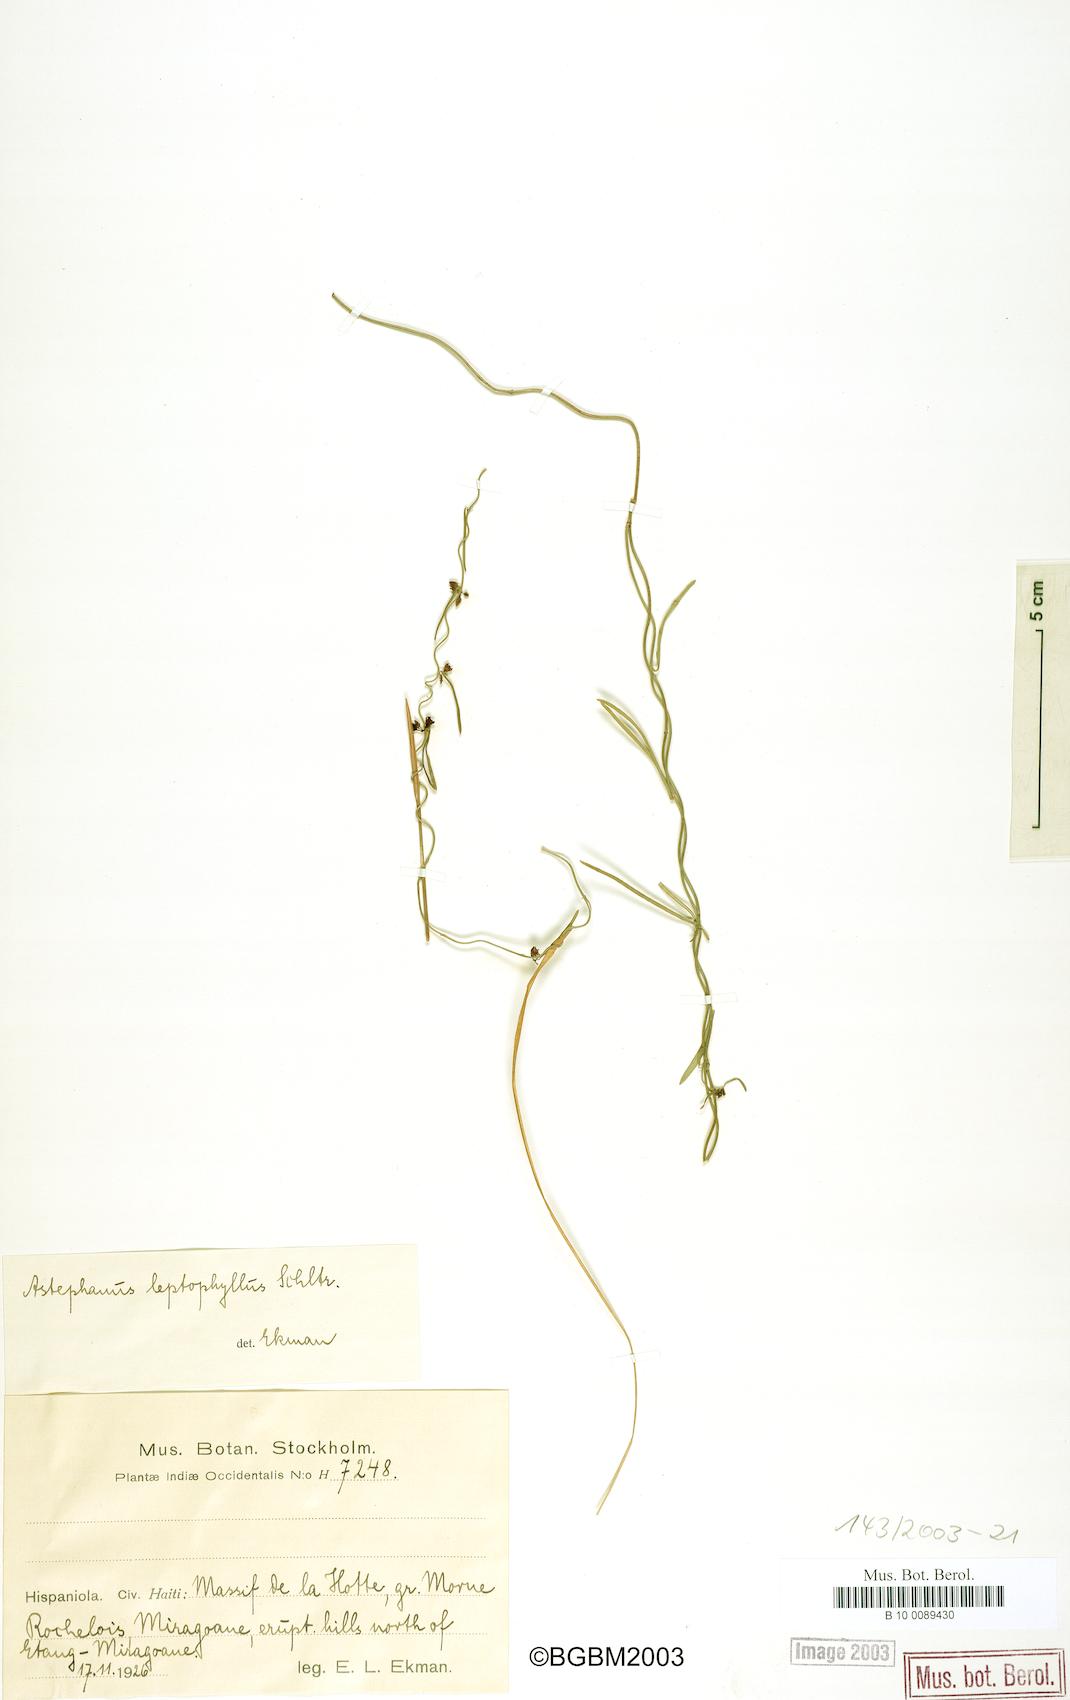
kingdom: Plantae
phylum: Tracheophyta
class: Magnoliopsida
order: Gentianales
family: Apocynaceae
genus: Metastelma
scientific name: Metastelma leptophyllum
